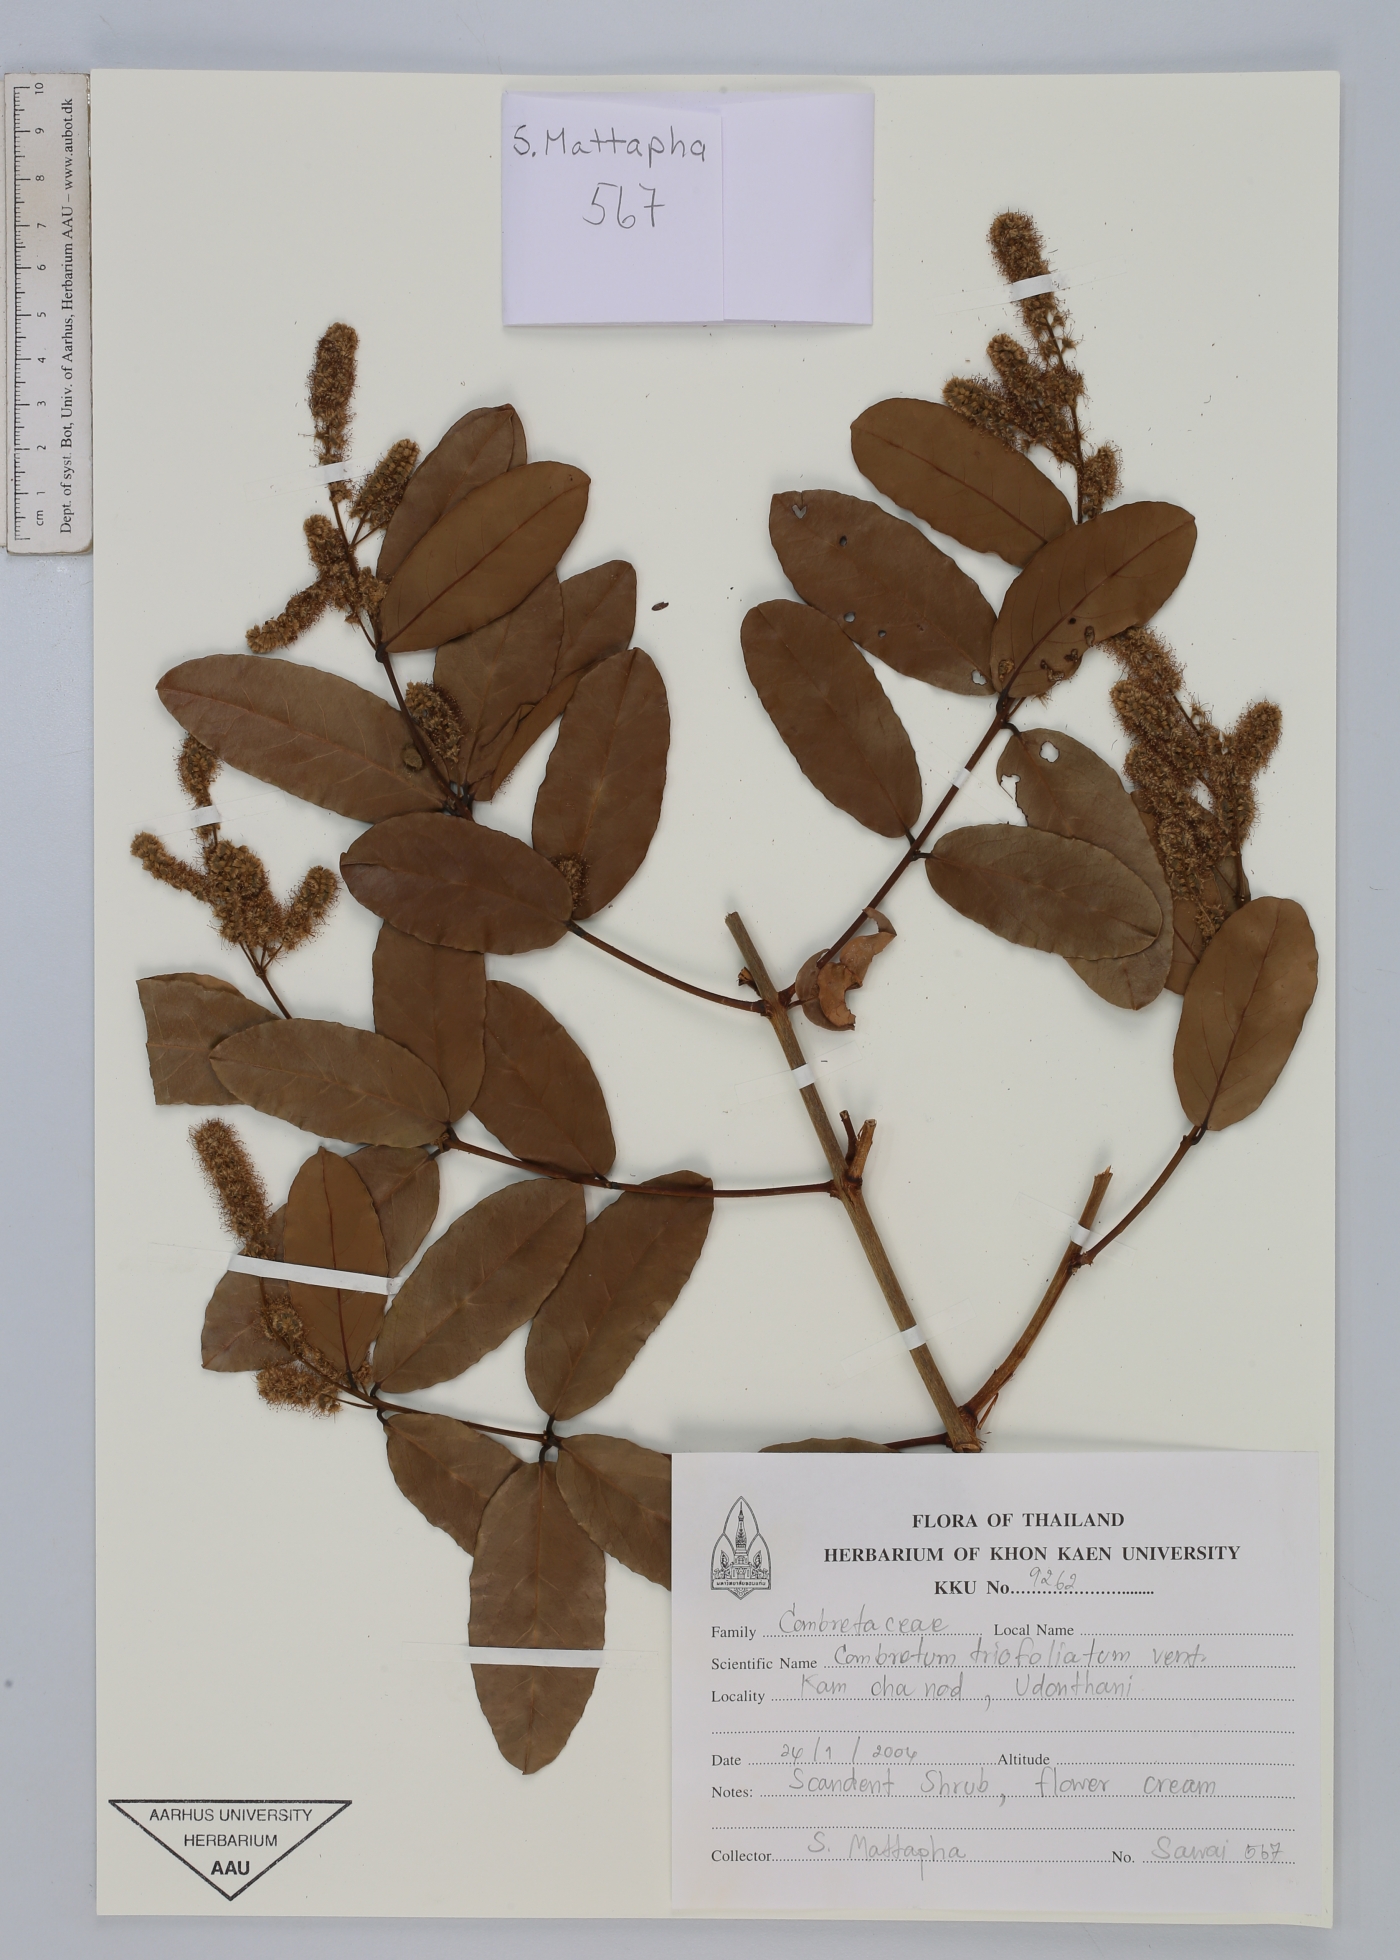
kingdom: Plantae
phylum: Tracheophyta
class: Magnoliopsida
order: Myrtales
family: Combretaceae
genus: Combretum
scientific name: Combretum trifoliatum
